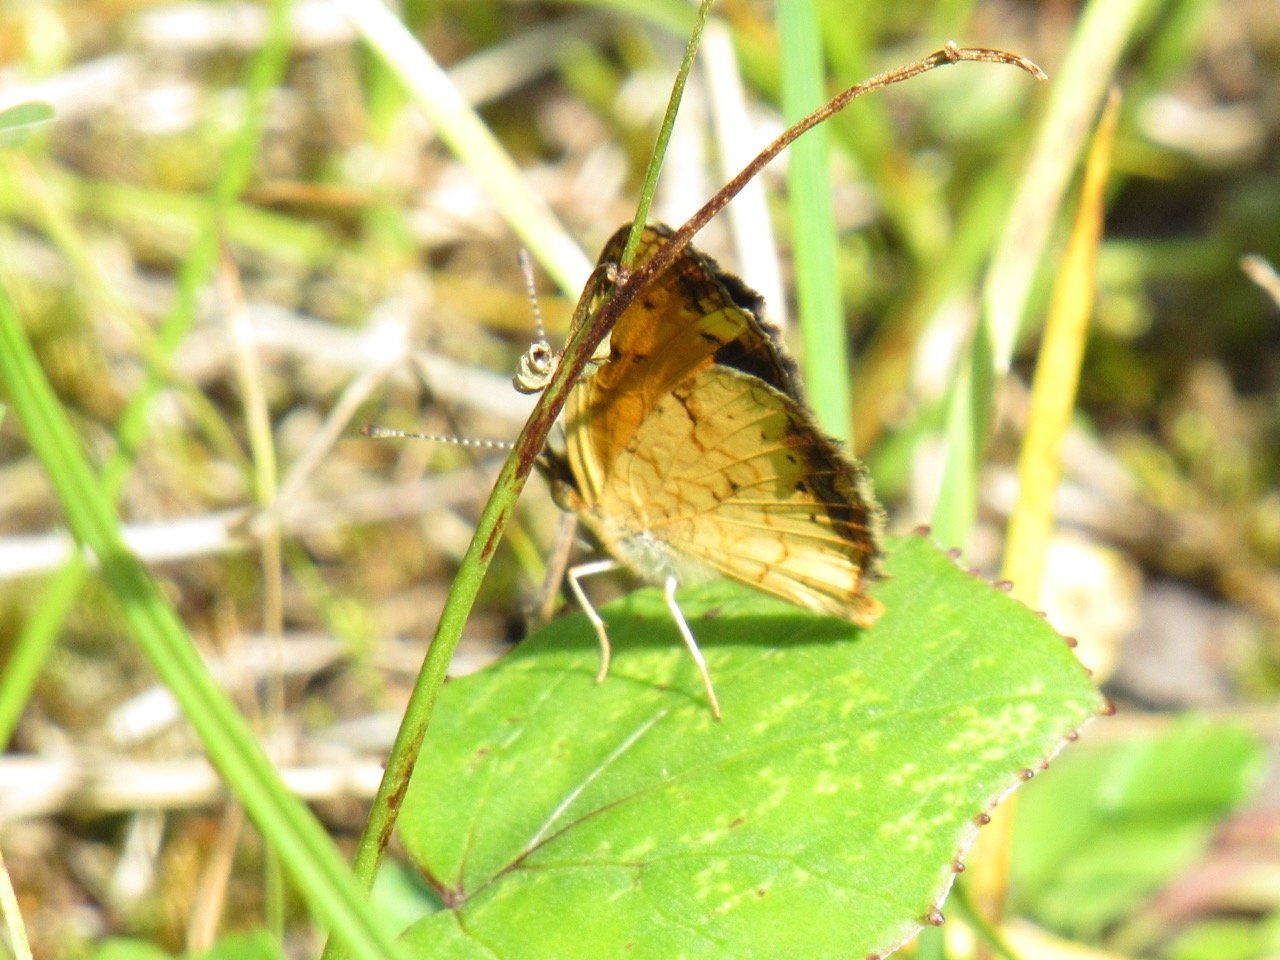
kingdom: Animalia
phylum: Arthropoda
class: Insecta
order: Lepidoptera
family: Nymphalidae
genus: Phyciodes
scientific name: Phyciodes
